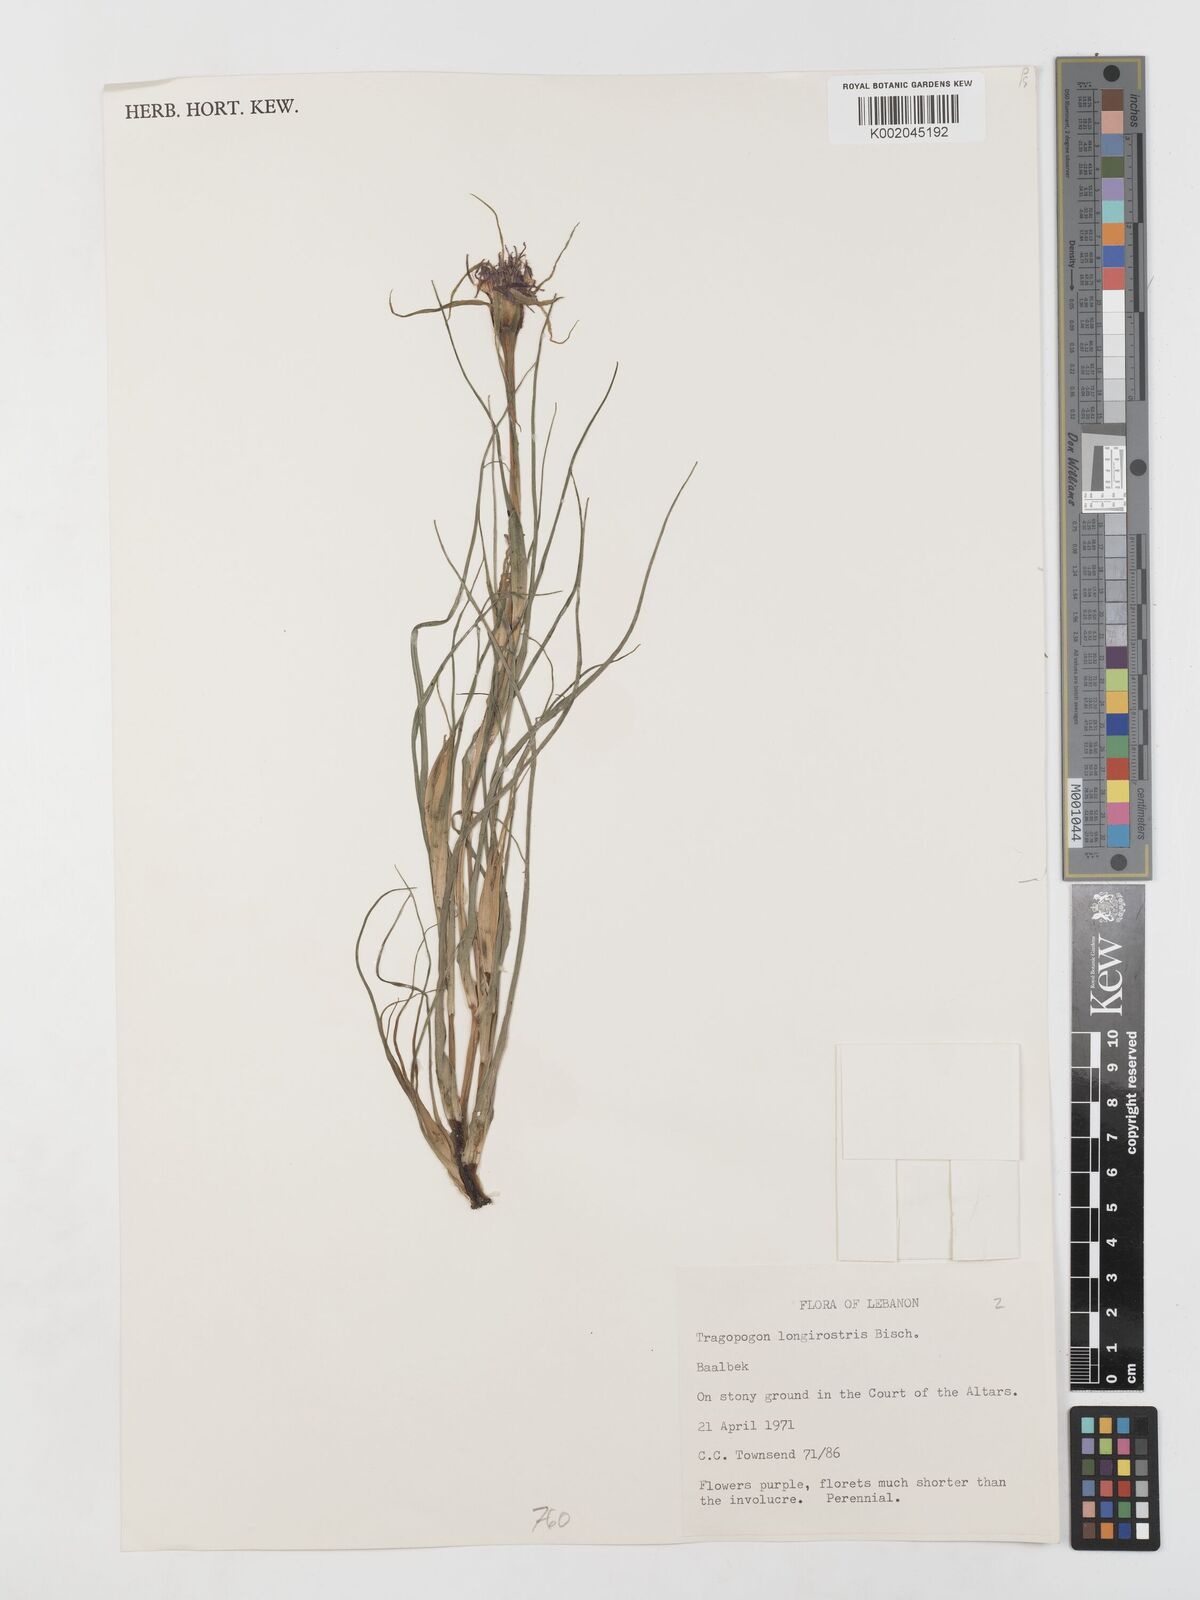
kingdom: Plantae
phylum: Tracheophyta
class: Magnoliopsida
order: Asterales
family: Asteraceae
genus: Tragopogon
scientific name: Tragopogon coelesyriacus
